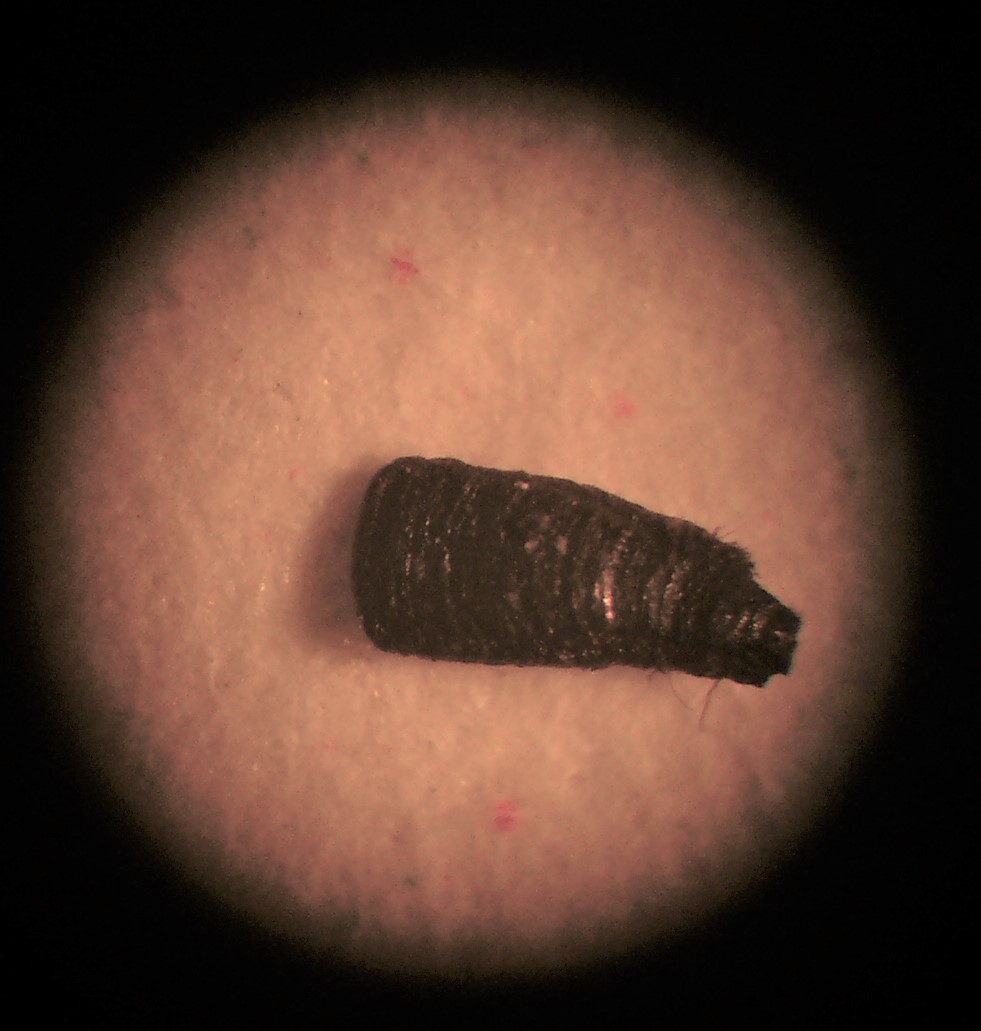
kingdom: Fungi
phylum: Ascomycota
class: Eurotiomycetes
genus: Glyphium
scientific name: Glyphium elatum
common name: kuløkse
